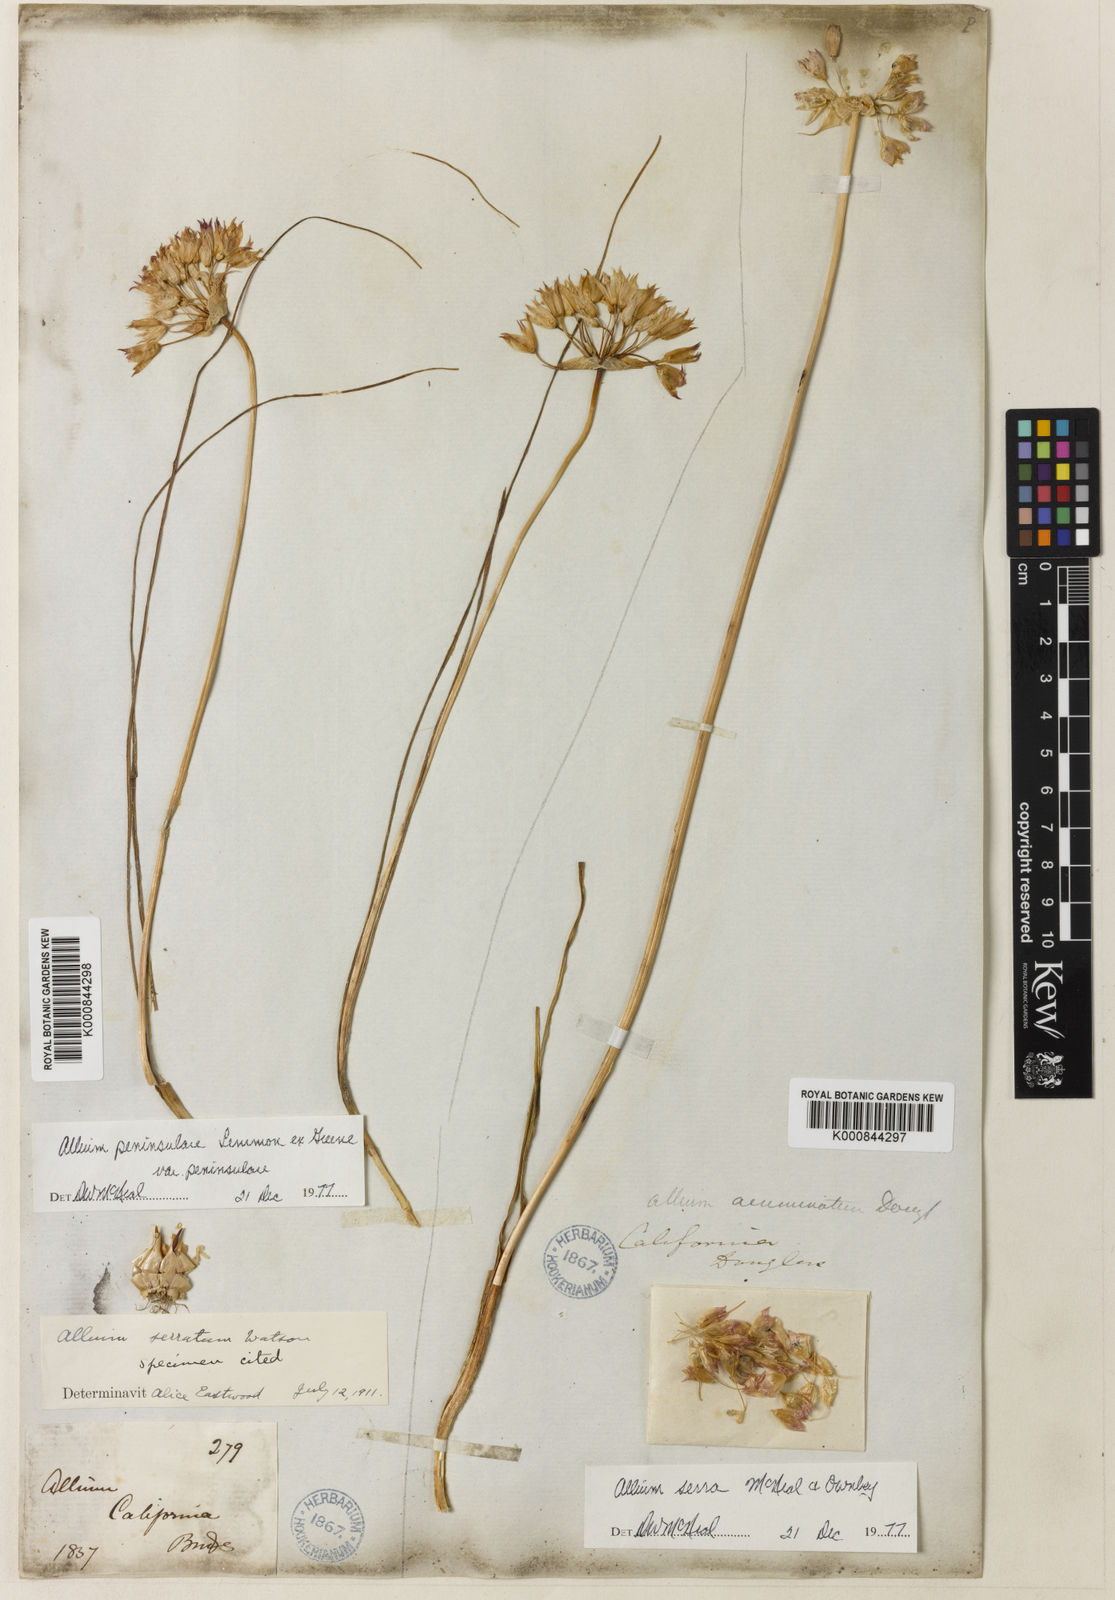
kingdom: Plantae
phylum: Tracheophyta
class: Liliopsida
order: Asparagales
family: Amaryllidaceae
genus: Allium
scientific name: Allium peninsulare
